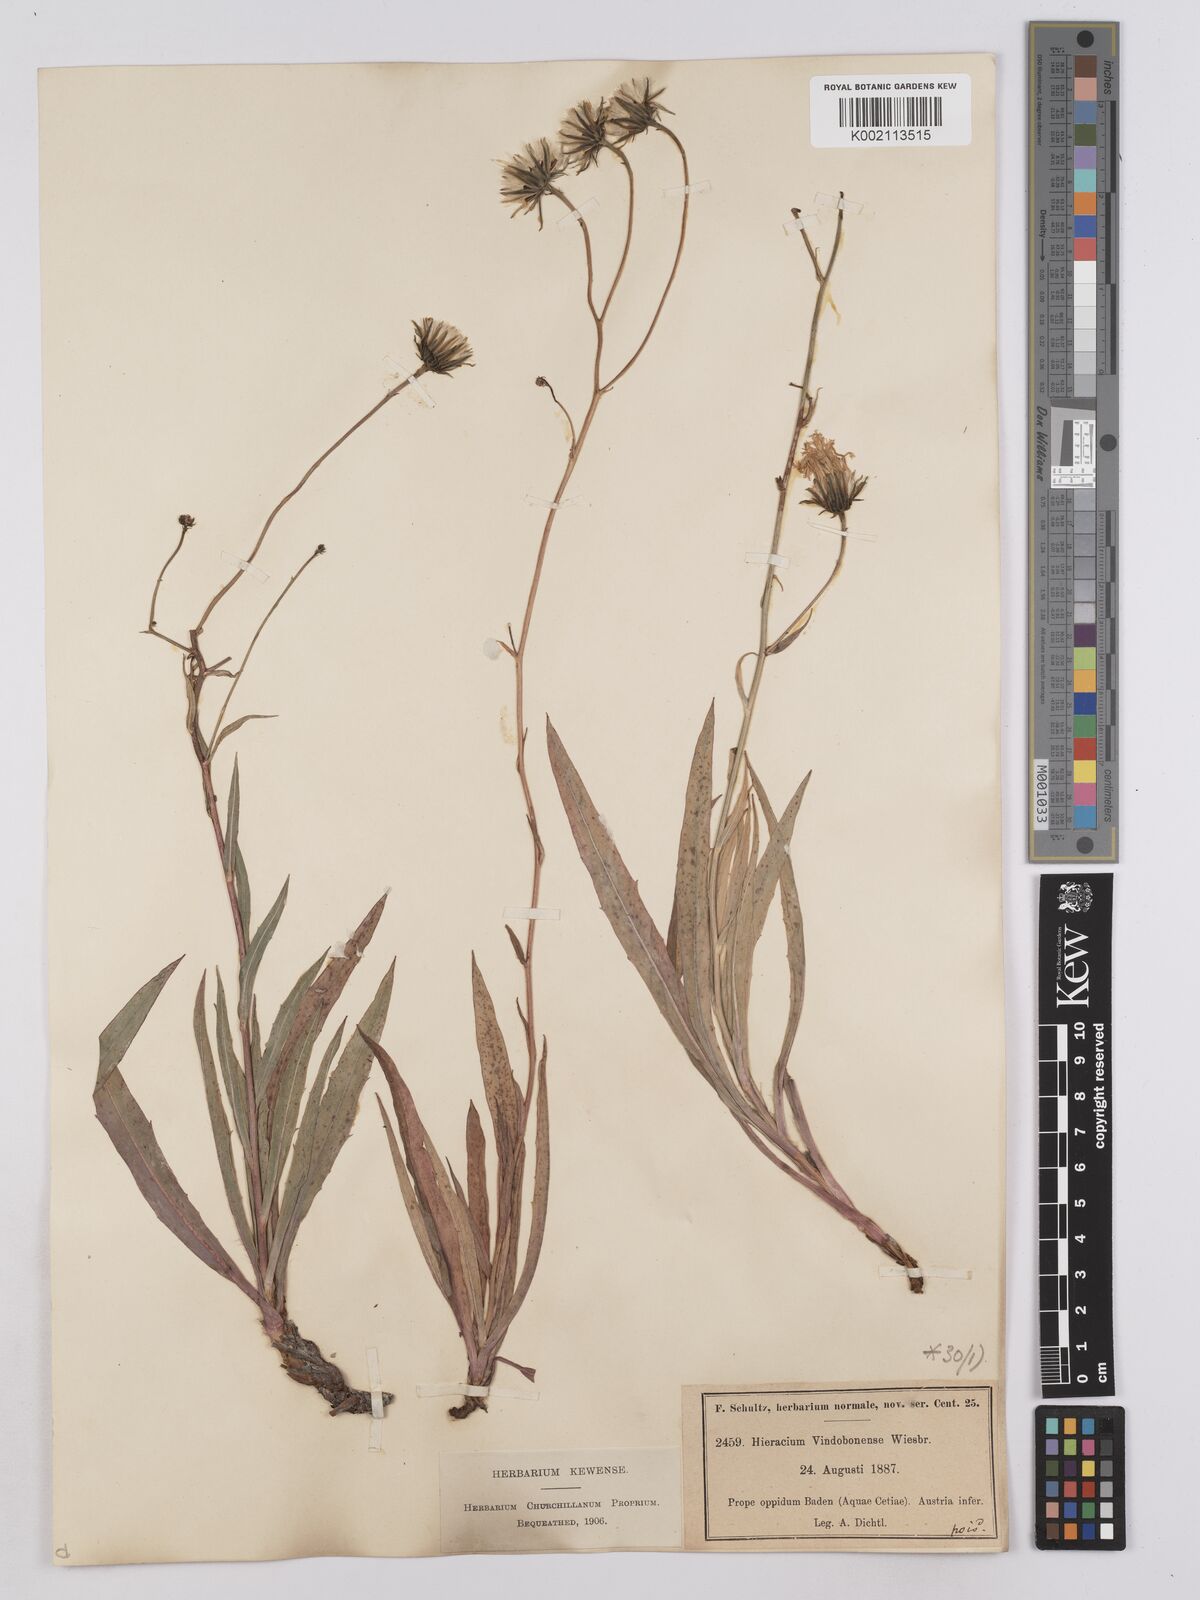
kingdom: Plantae
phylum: Tracheophyta
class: Magnoliopsida
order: Asterales
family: Asteraceae
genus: Hieracium
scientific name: Hieracium vindobonense
